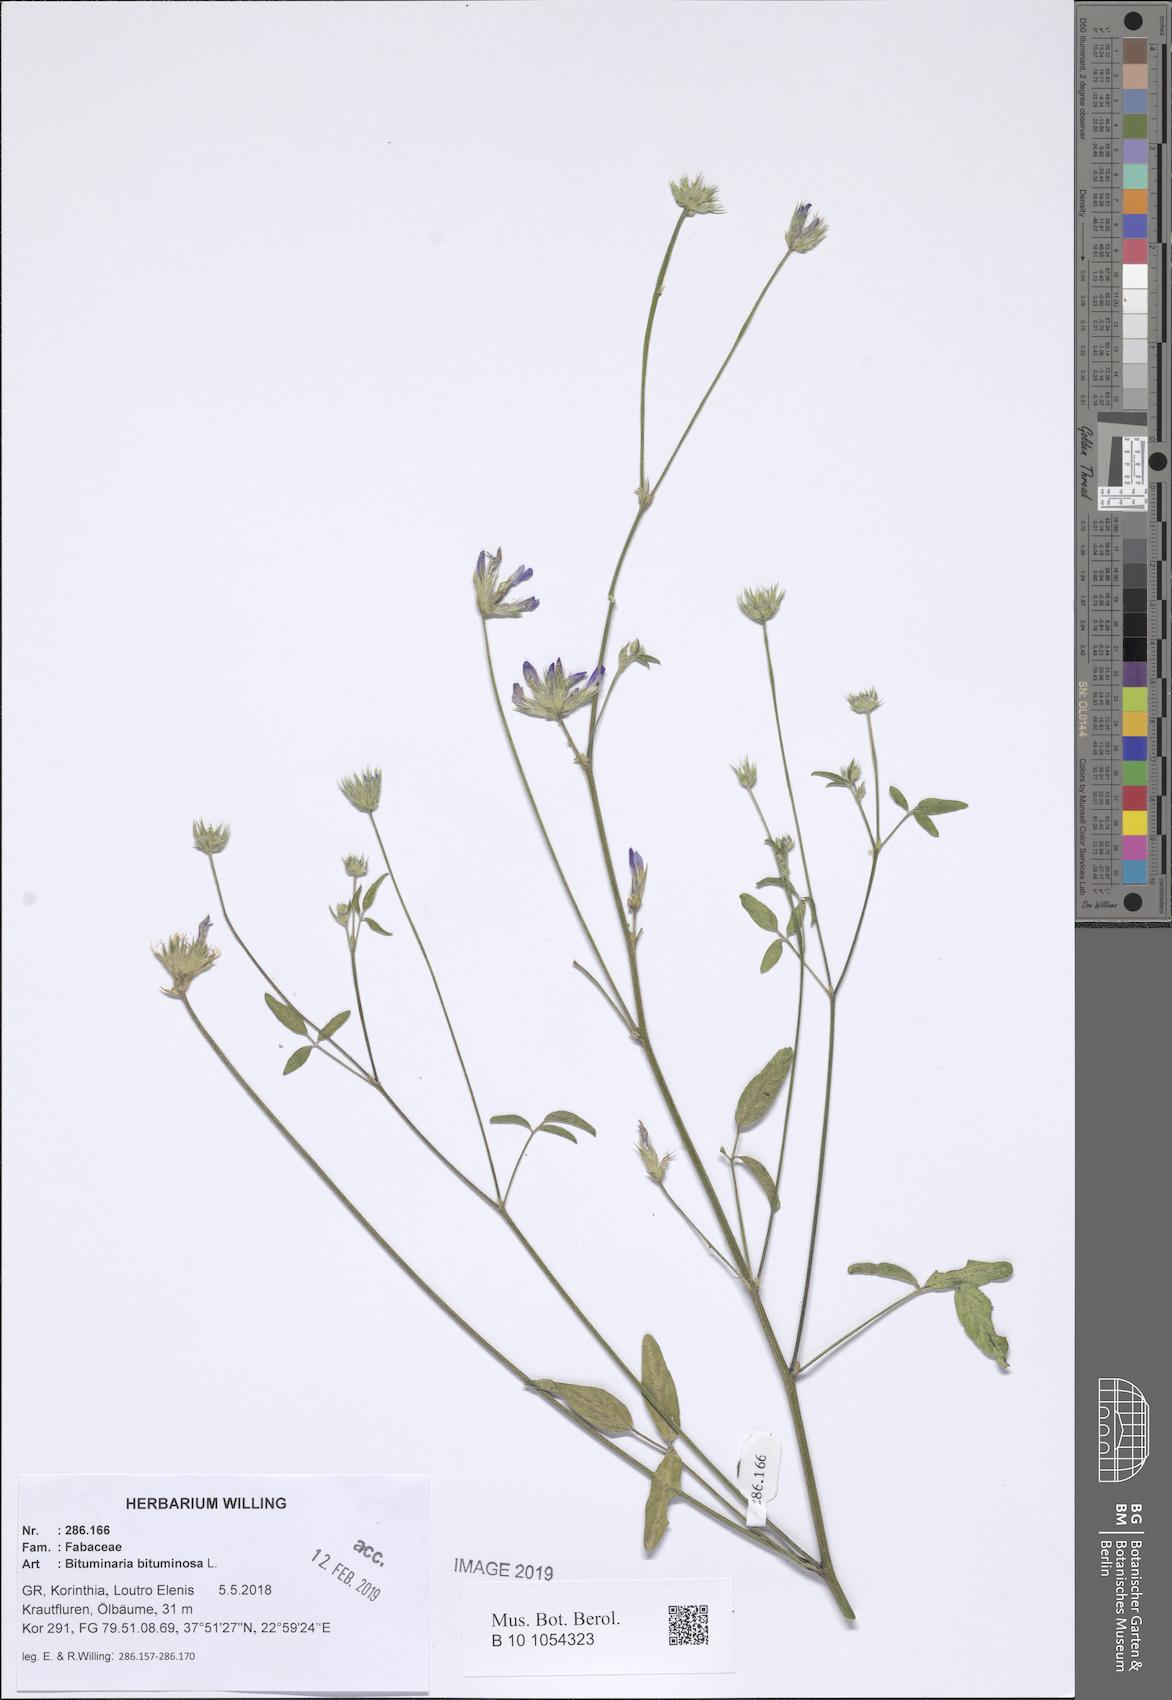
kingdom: Plantae
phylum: Tracheophyta
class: Magnoliopsida
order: Fabales
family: Fabaceae
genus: Bituminaria
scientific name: Bituminaria bituminosa
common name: Arabian pea
